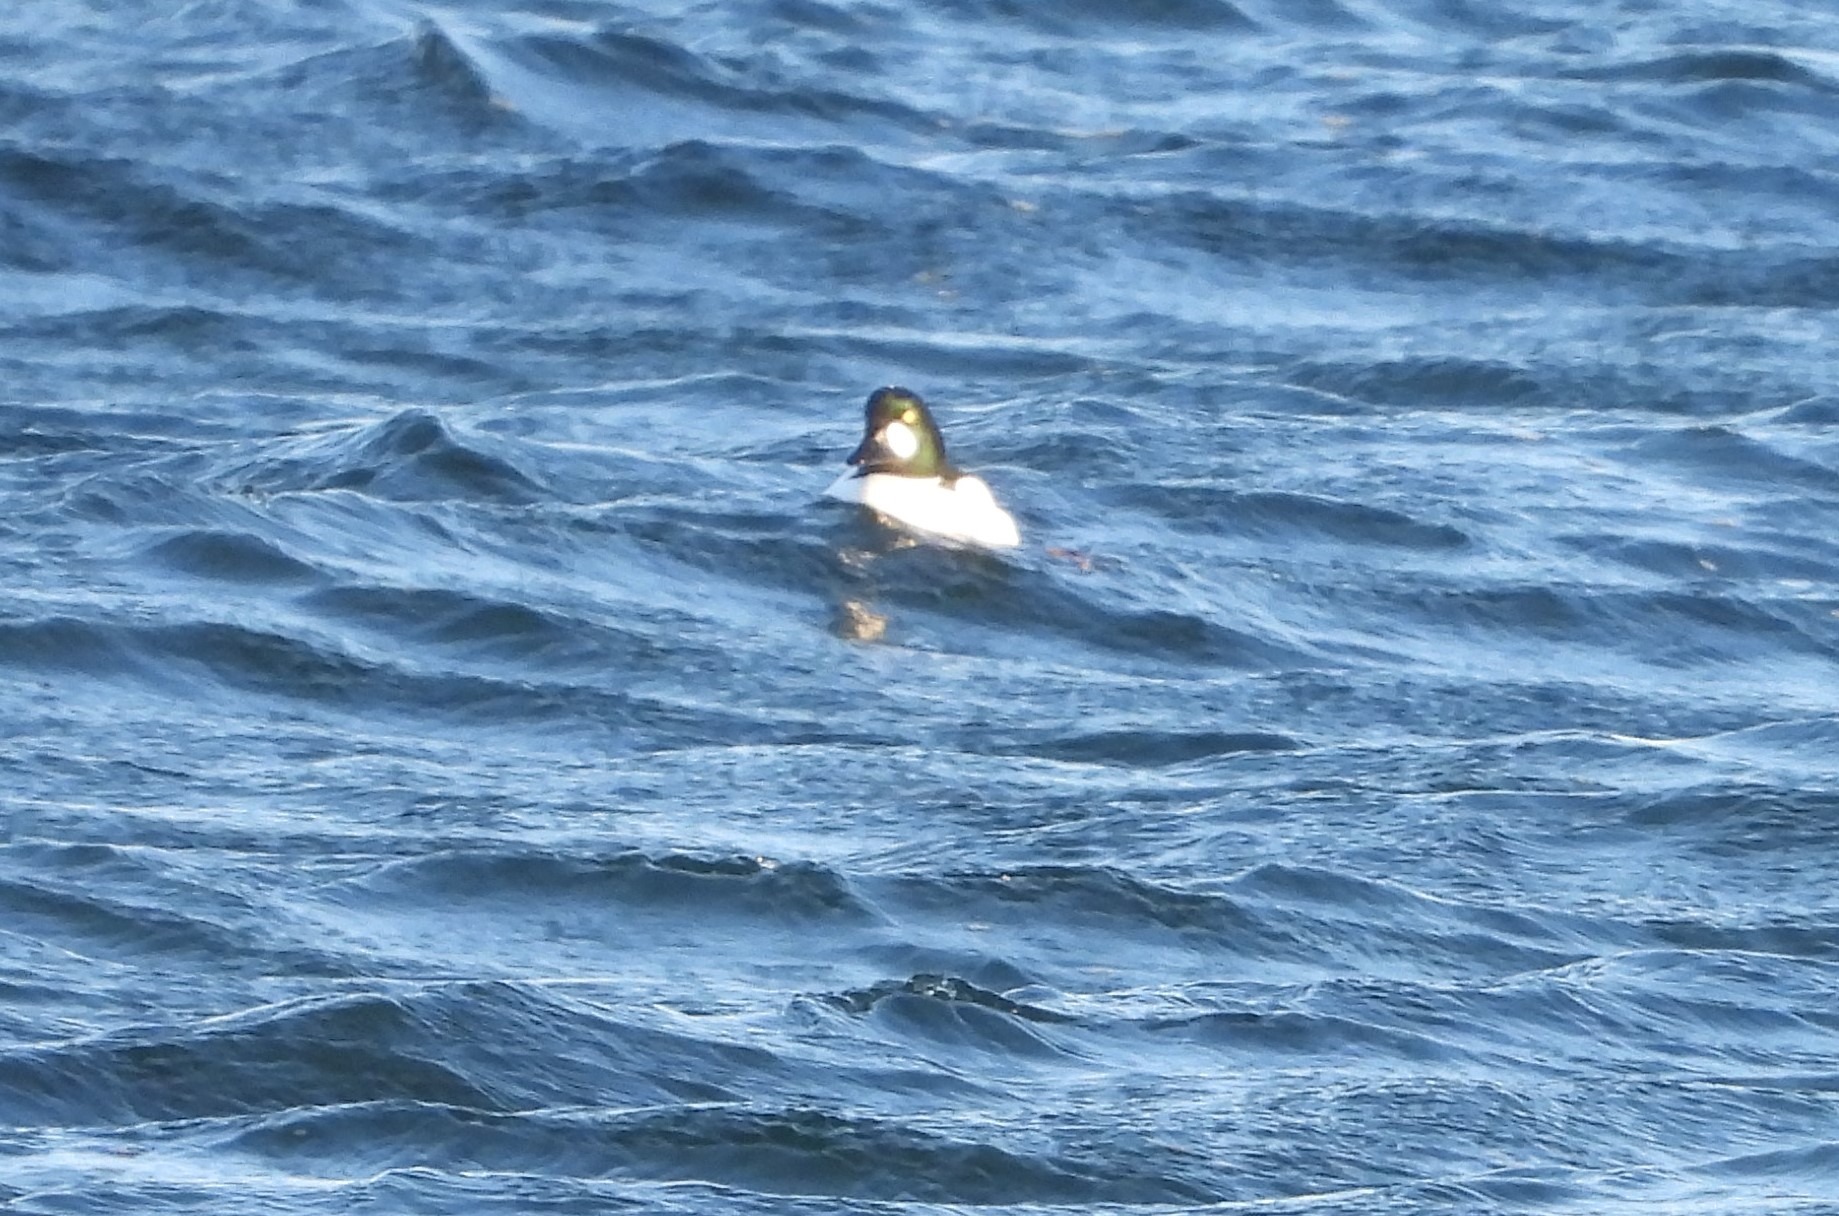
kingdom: Animalia
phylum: Chordata
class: Aves
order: Anseriformes
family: Anatidae
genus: Bucephala
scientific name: Bucephala clangula
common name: Hvinand
